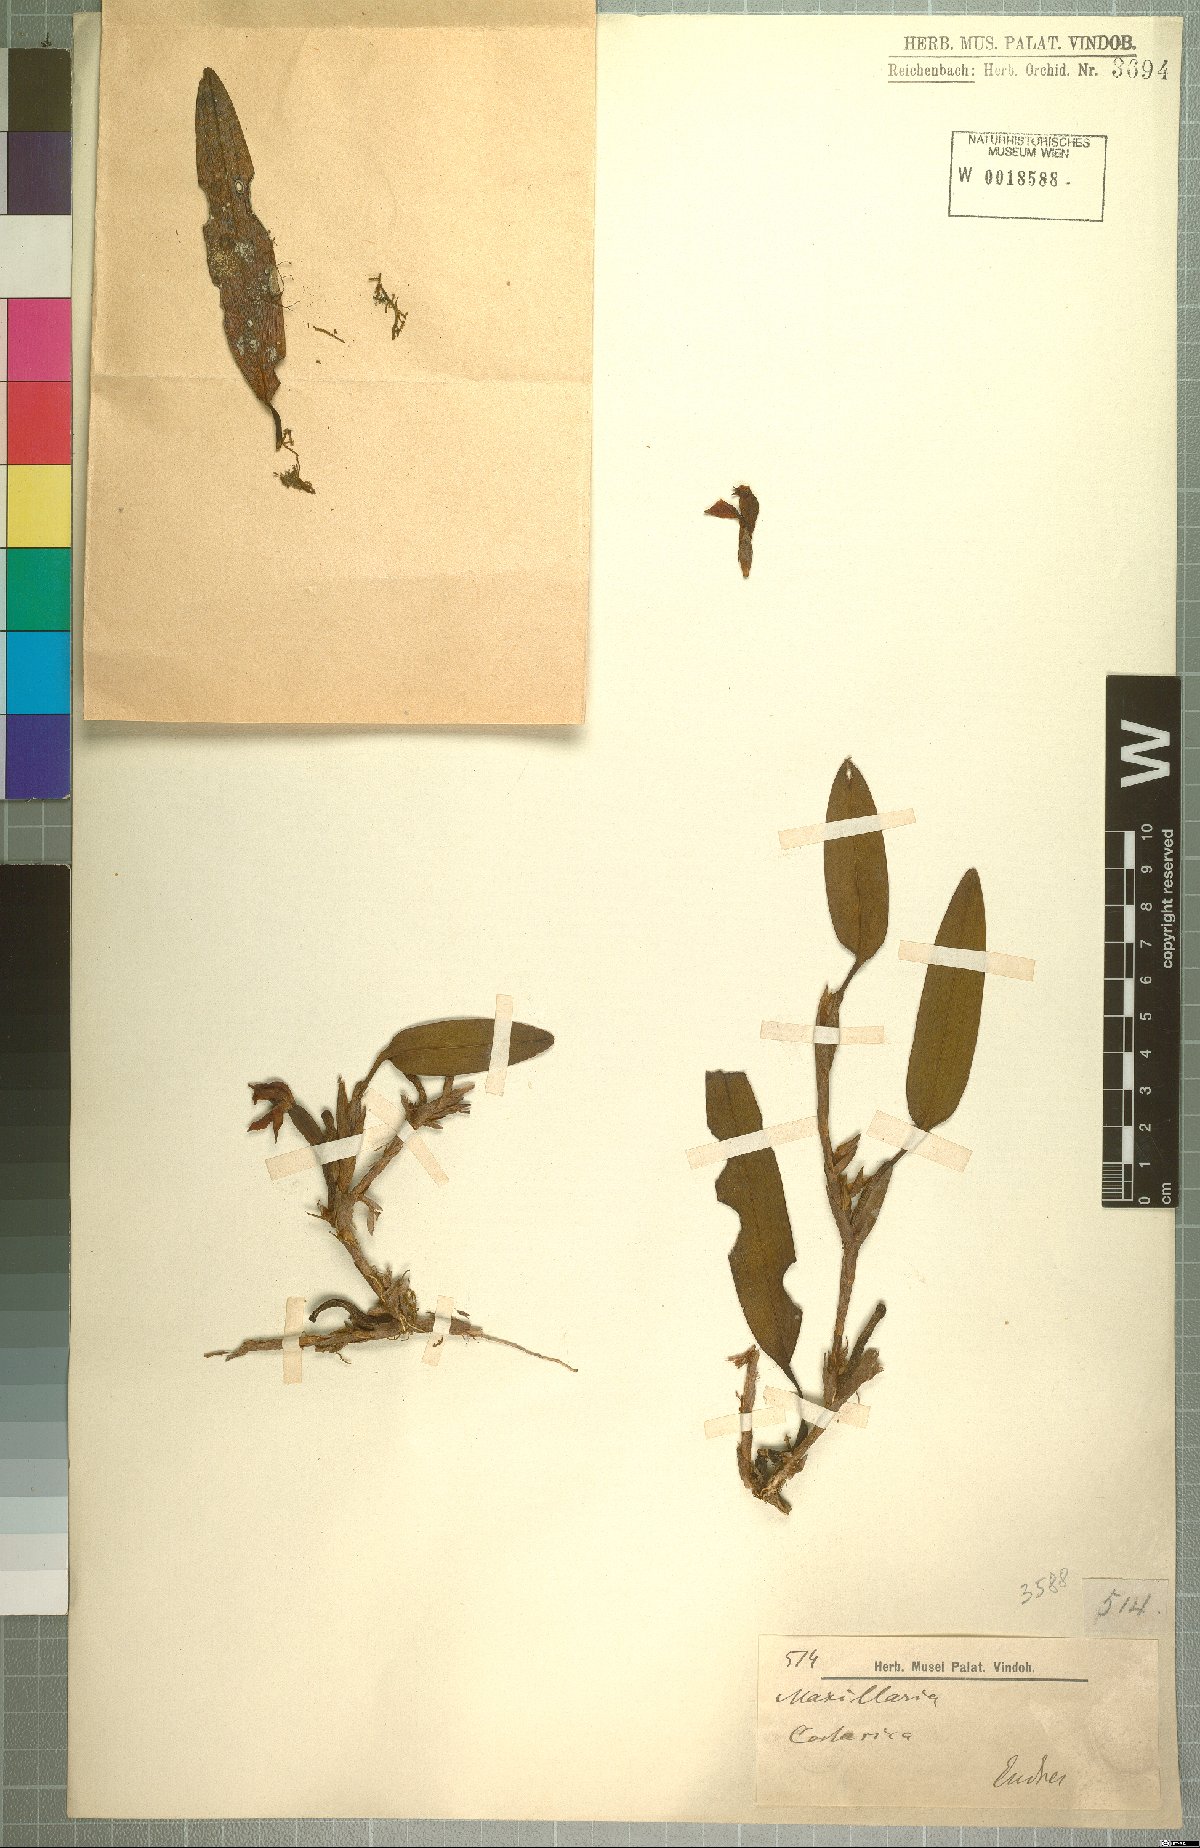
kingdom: Plantae
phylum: Tracheophyta
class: Liliopsida
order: Asparagales
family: Orchidaceae
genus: Maxillaria
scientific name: Maxillaria
